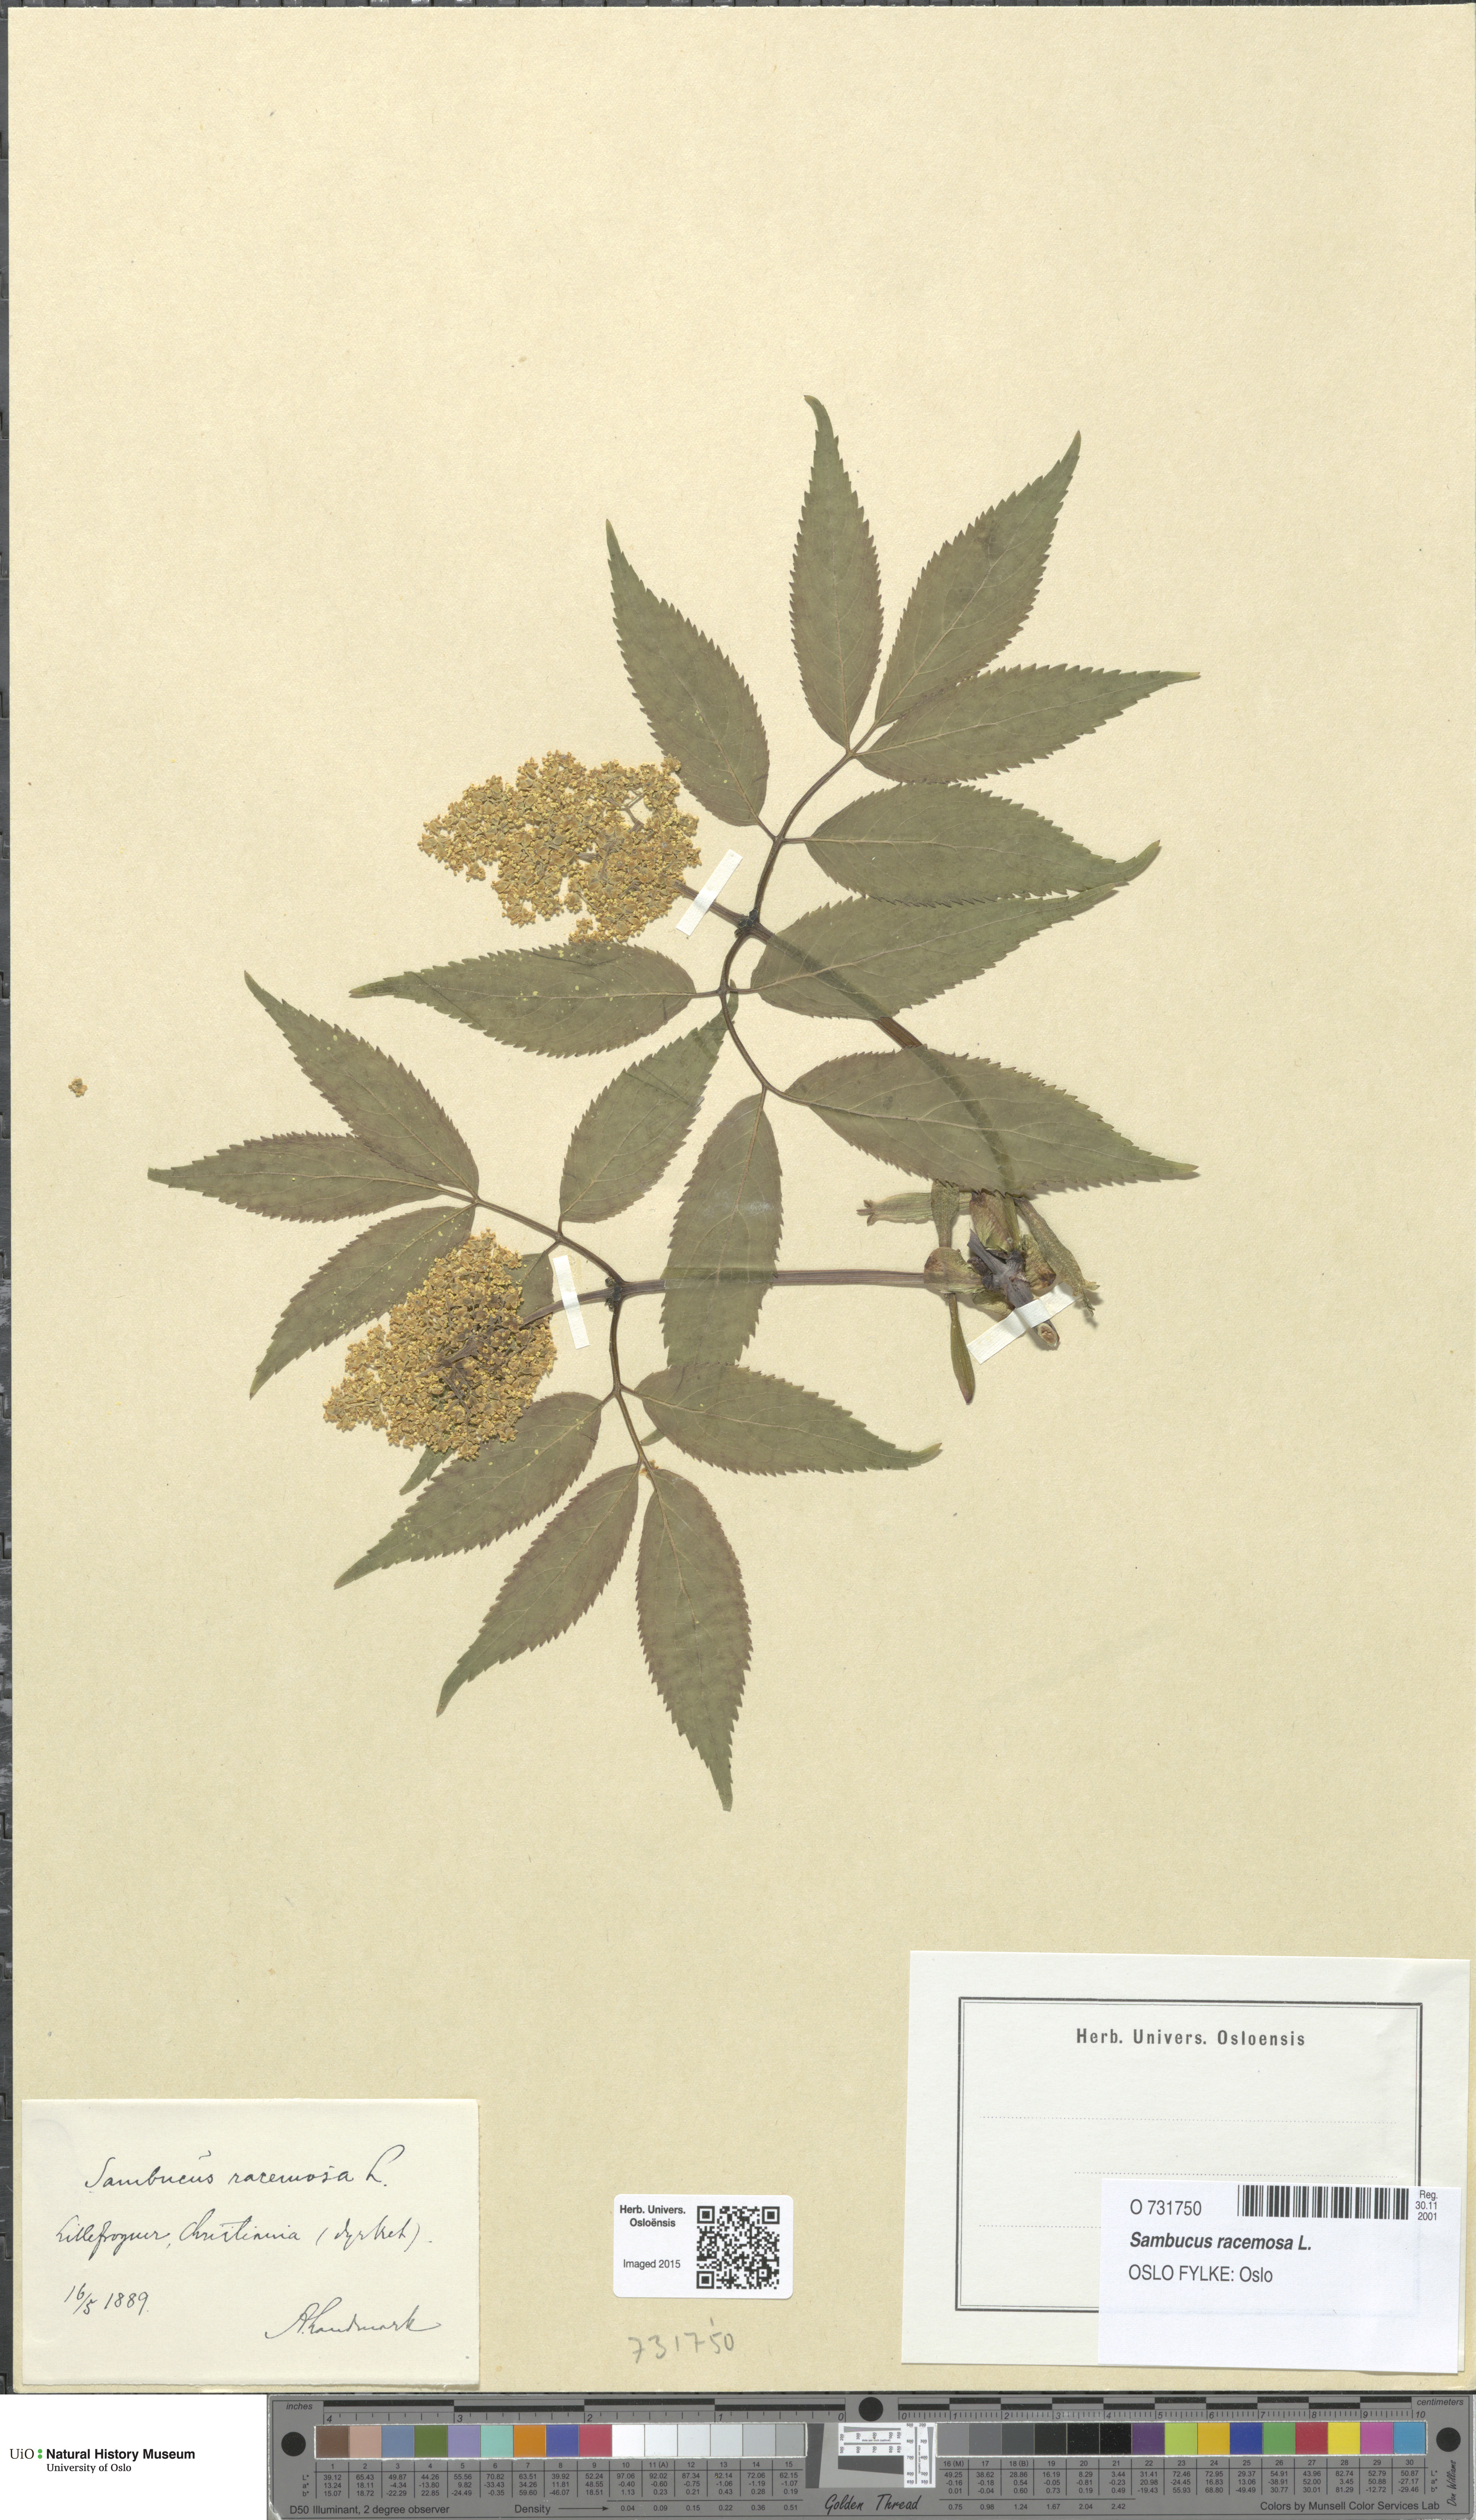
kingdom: Plantae
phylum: Tracheophyta
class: Magnoliopsida
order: Dipsacales
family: Viburnaceae
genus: Sambucus
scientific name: Sambucus racemosa
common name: Red-berried elder
